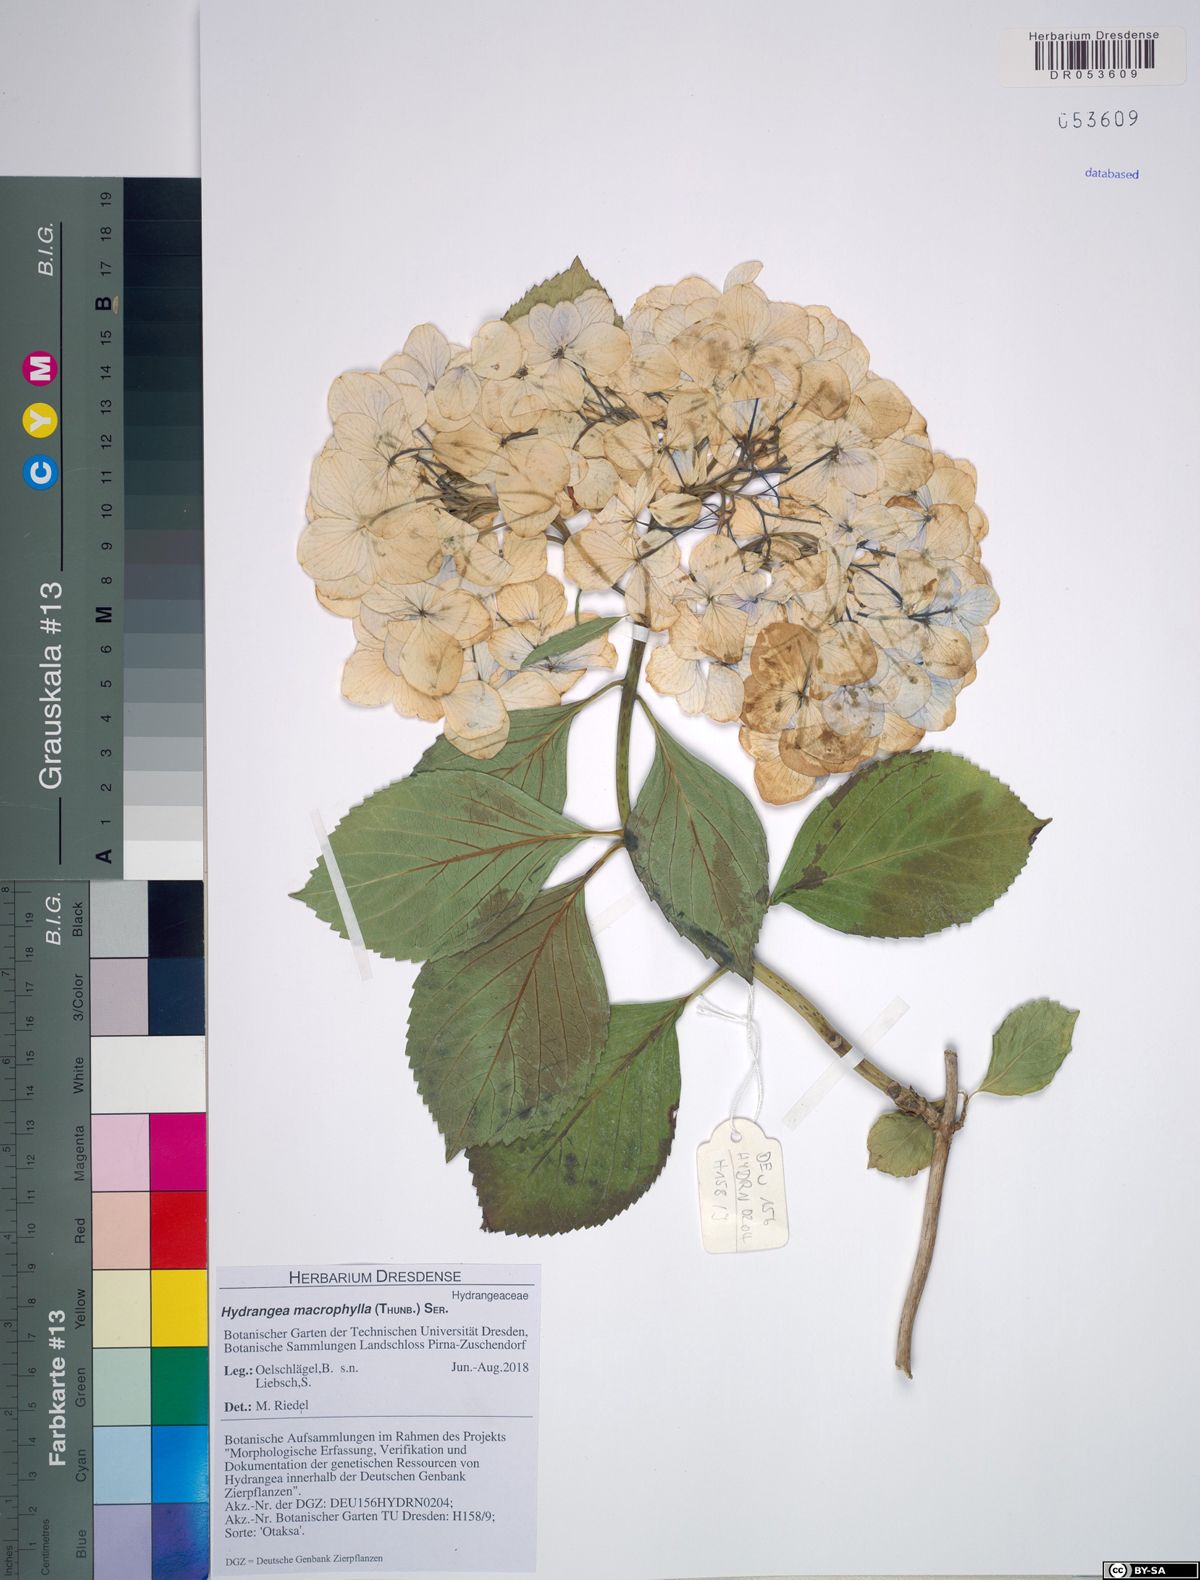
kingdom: Plantae
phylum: Tracheophyta
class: Magnoliopsida
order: Cornales
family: Hydrangeaceae
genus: Hydrangea
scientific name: Hydrangea macrophylla
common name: Hydrangea
